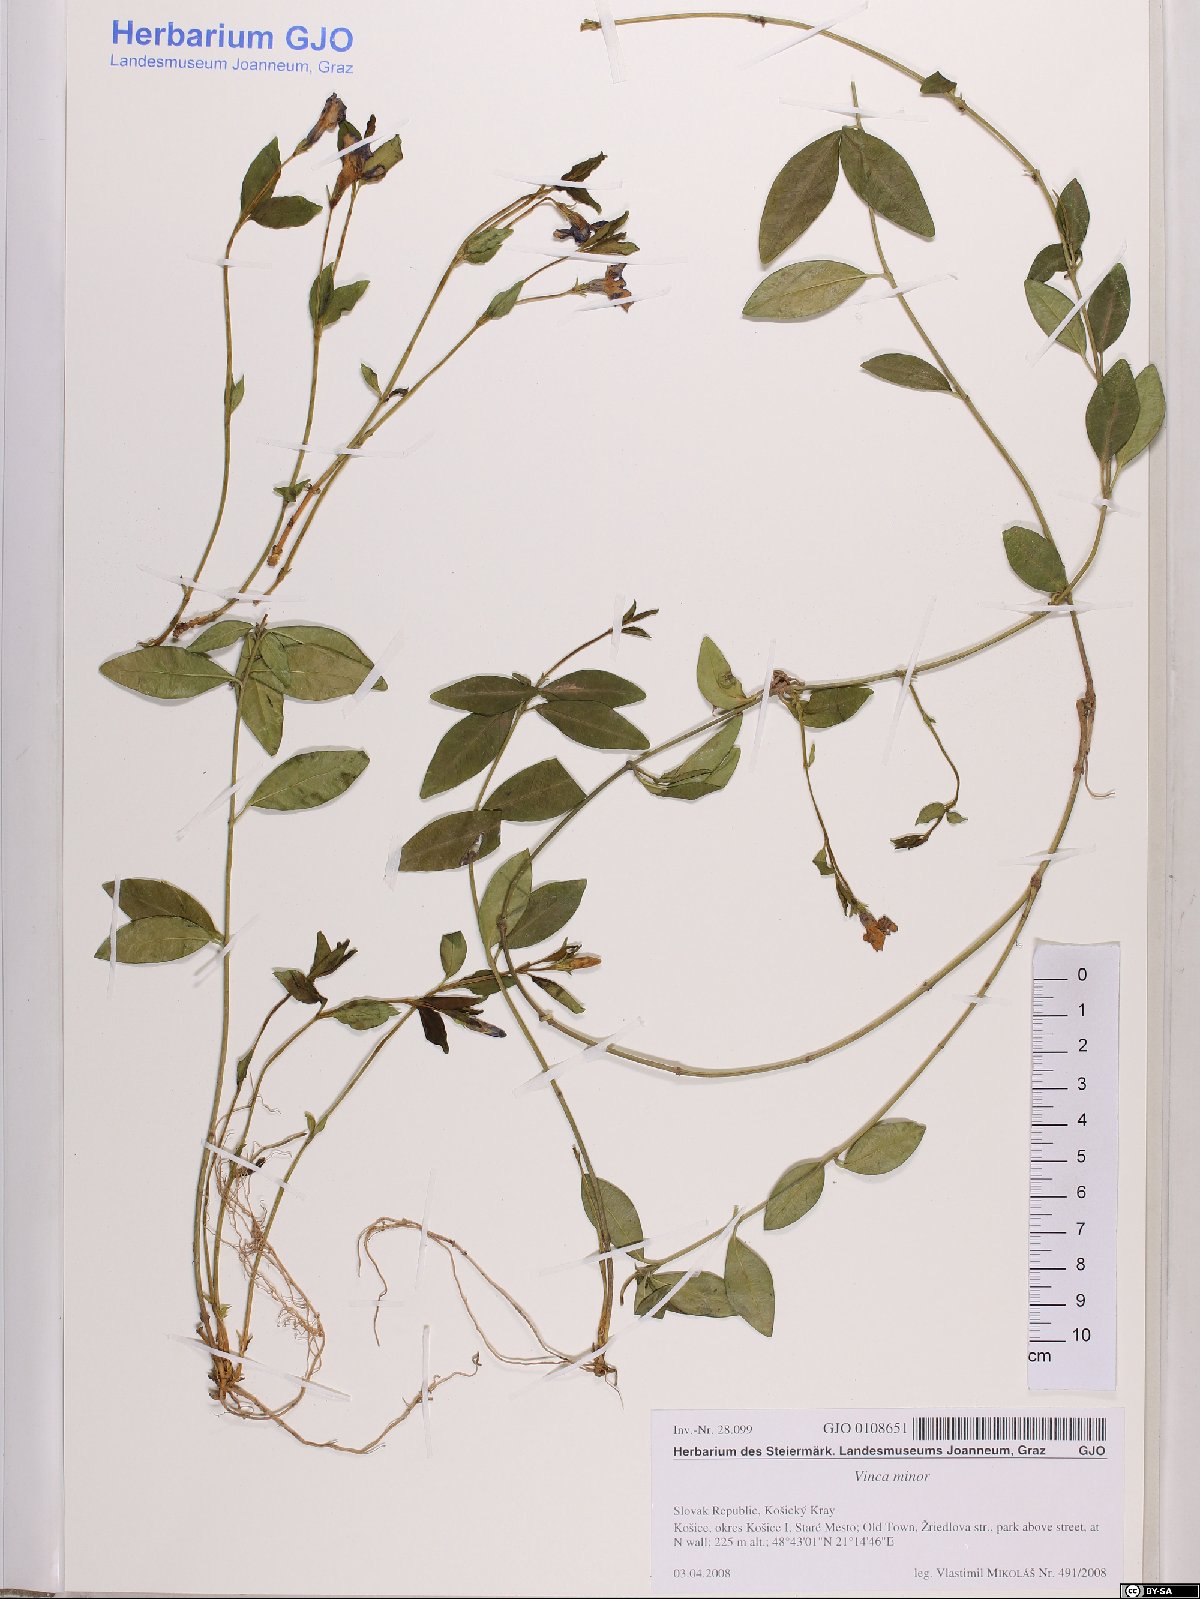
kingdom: Plantae
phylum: Tracheophyta
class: Magnoliopsida
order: Gentianales
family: Apocynaceae
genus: Vinca
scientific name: Vinca minor
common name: Lesser periwinkle
